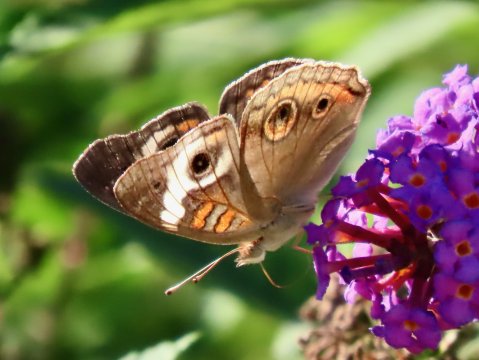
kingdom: Animalia
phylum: Arthropoda
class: Insecta
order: Lepidoptera
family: Nymphalidae
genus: Junonia
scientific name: Junonia coenia
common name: Common Buckeye
